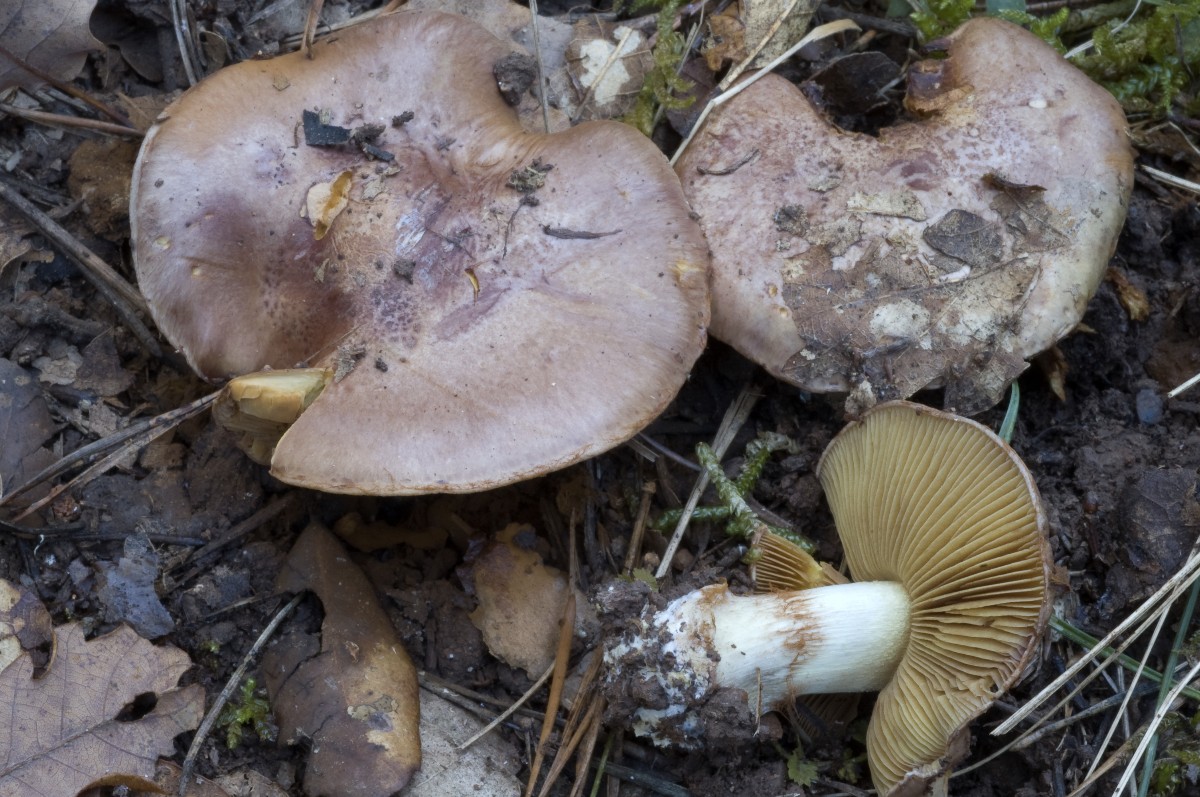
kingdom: Fungi
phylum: Basidiomycota
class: Agaricomycetes
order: Agaricales
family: Cortinariaceae
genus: Calonarius
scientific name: Calonarius splendificus
